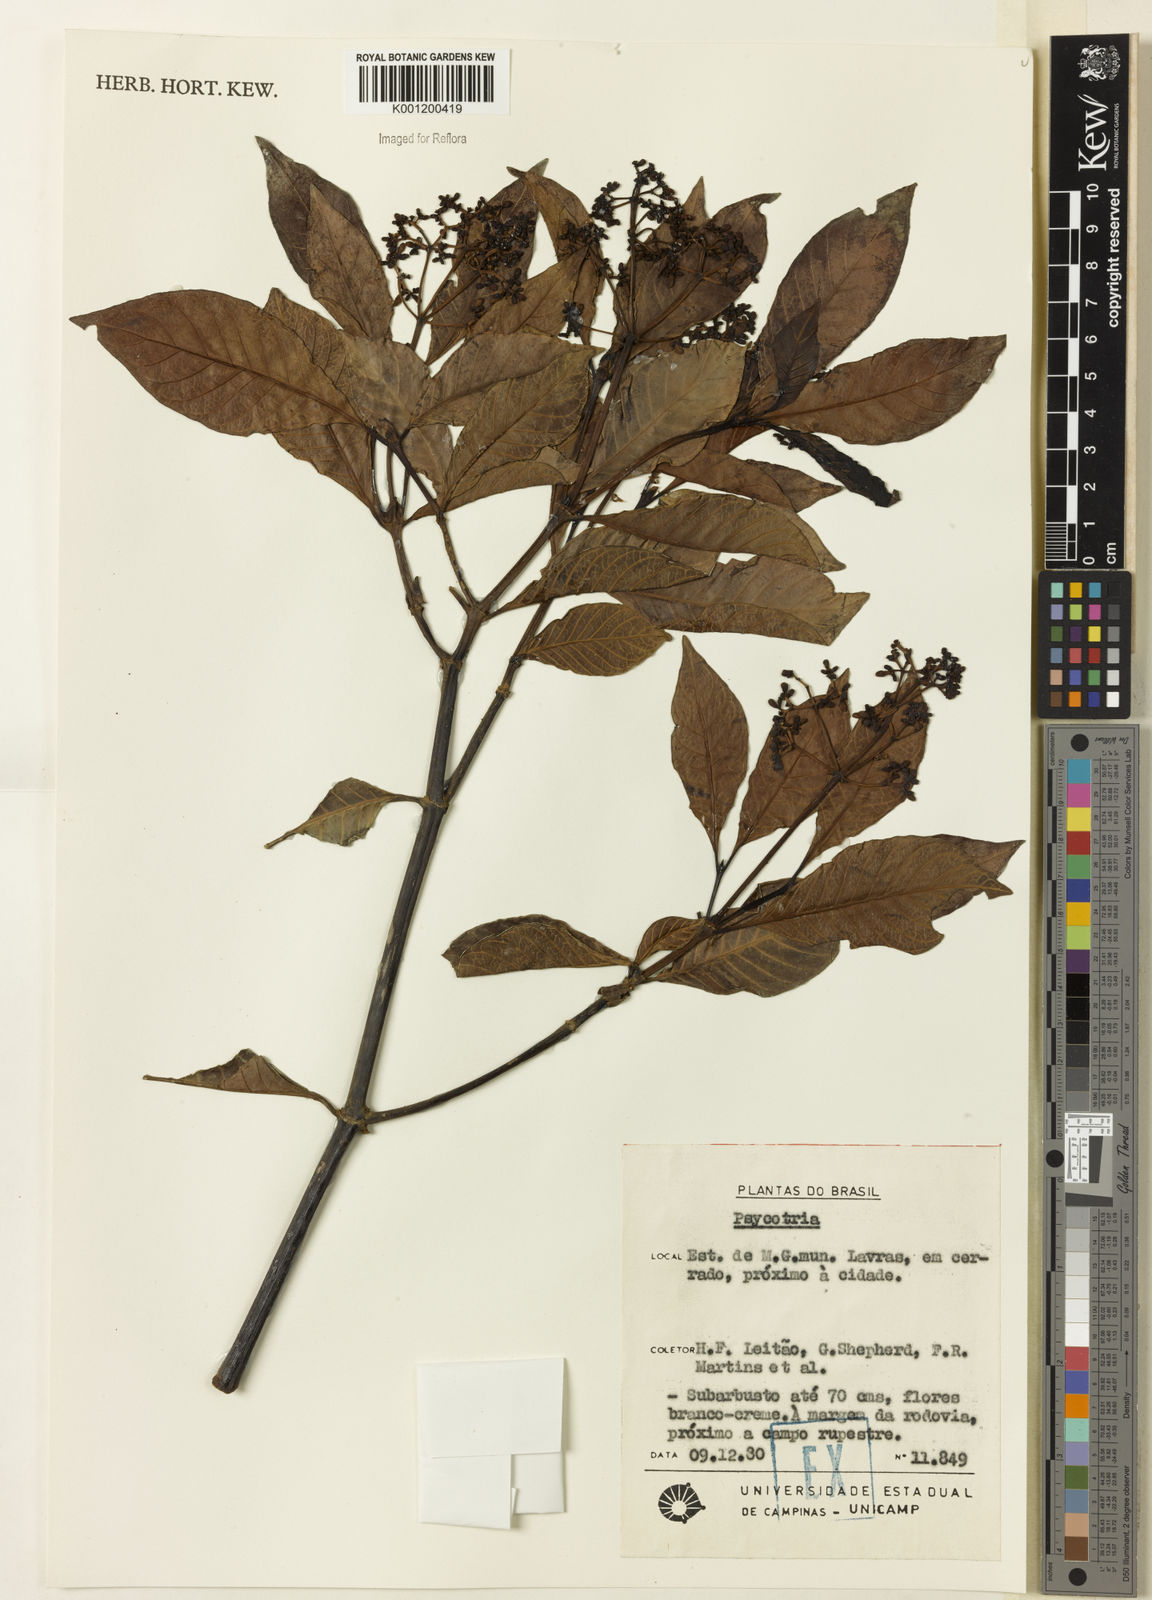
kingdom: Plantae
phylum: Tracheophyta
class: Magnoliopsida
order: Gentianales
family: Rubiaceae
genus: Psychotria
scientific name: Psychotria carthagenensis
